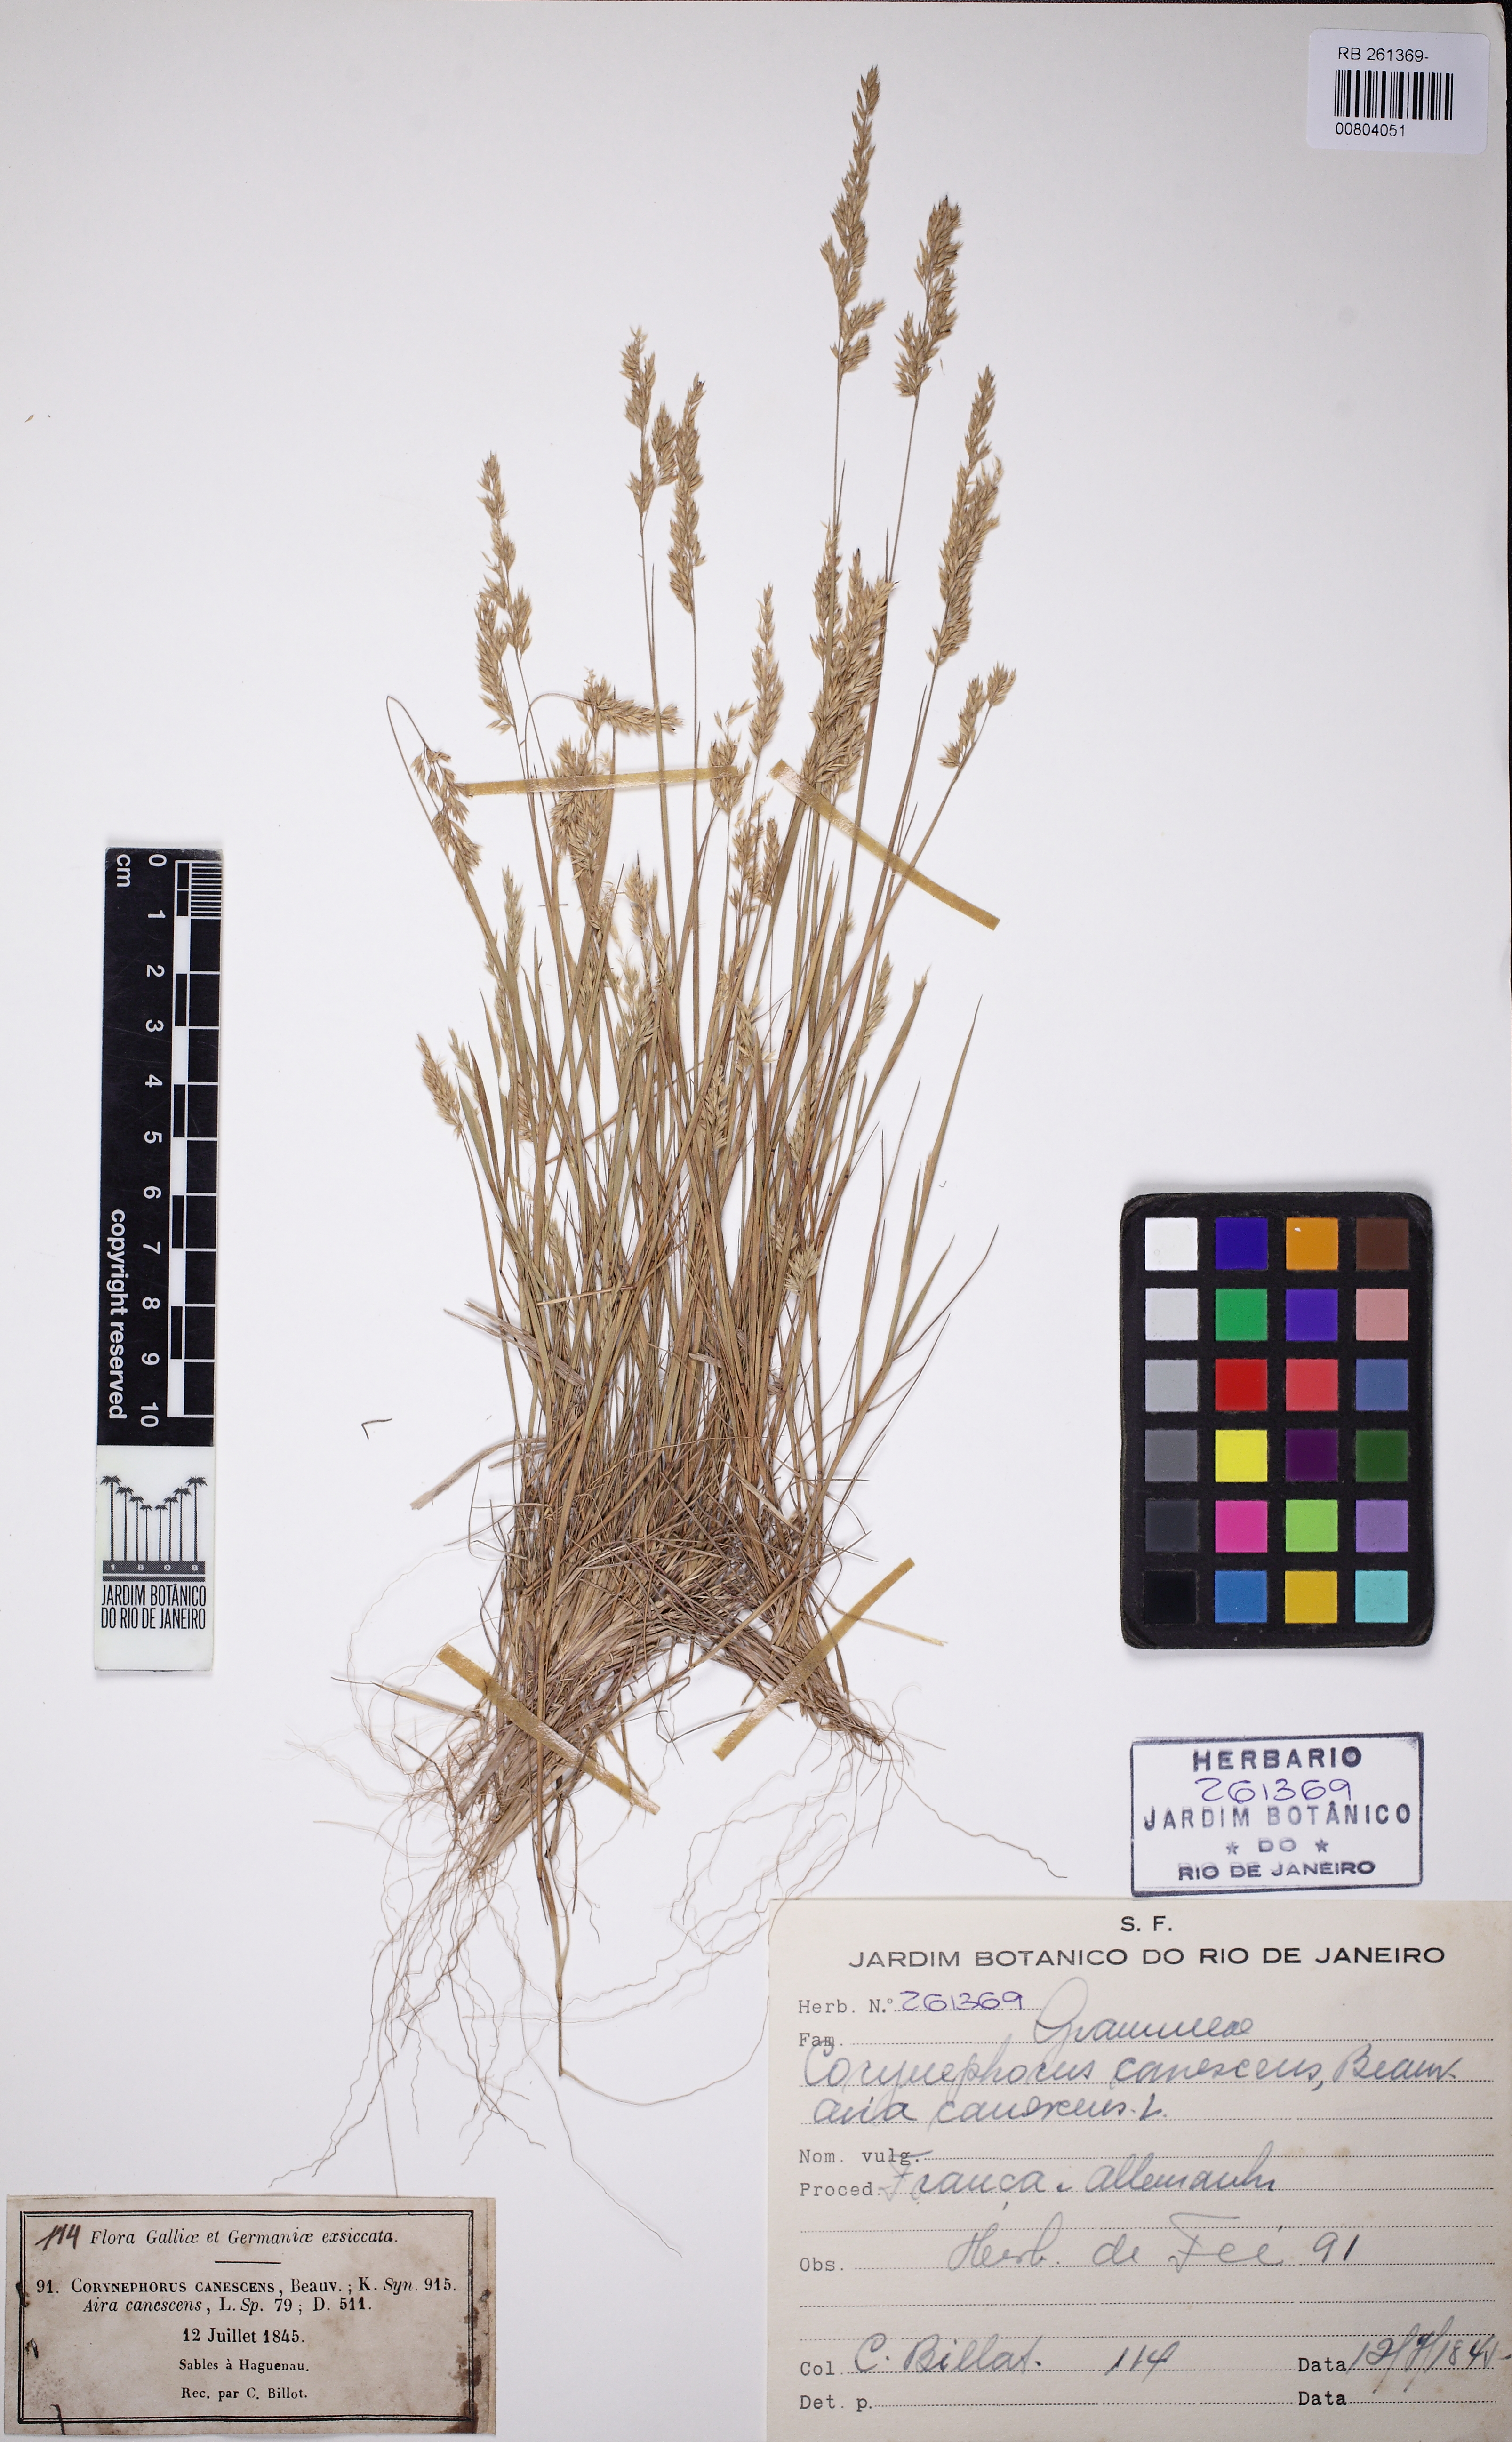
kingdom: Plantae
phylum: Tracheophyta
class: Liliopsida
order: Poales
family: Poaceae
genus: Corynephorus
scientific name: Corynephorus canescens
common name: Grey hair-grass
